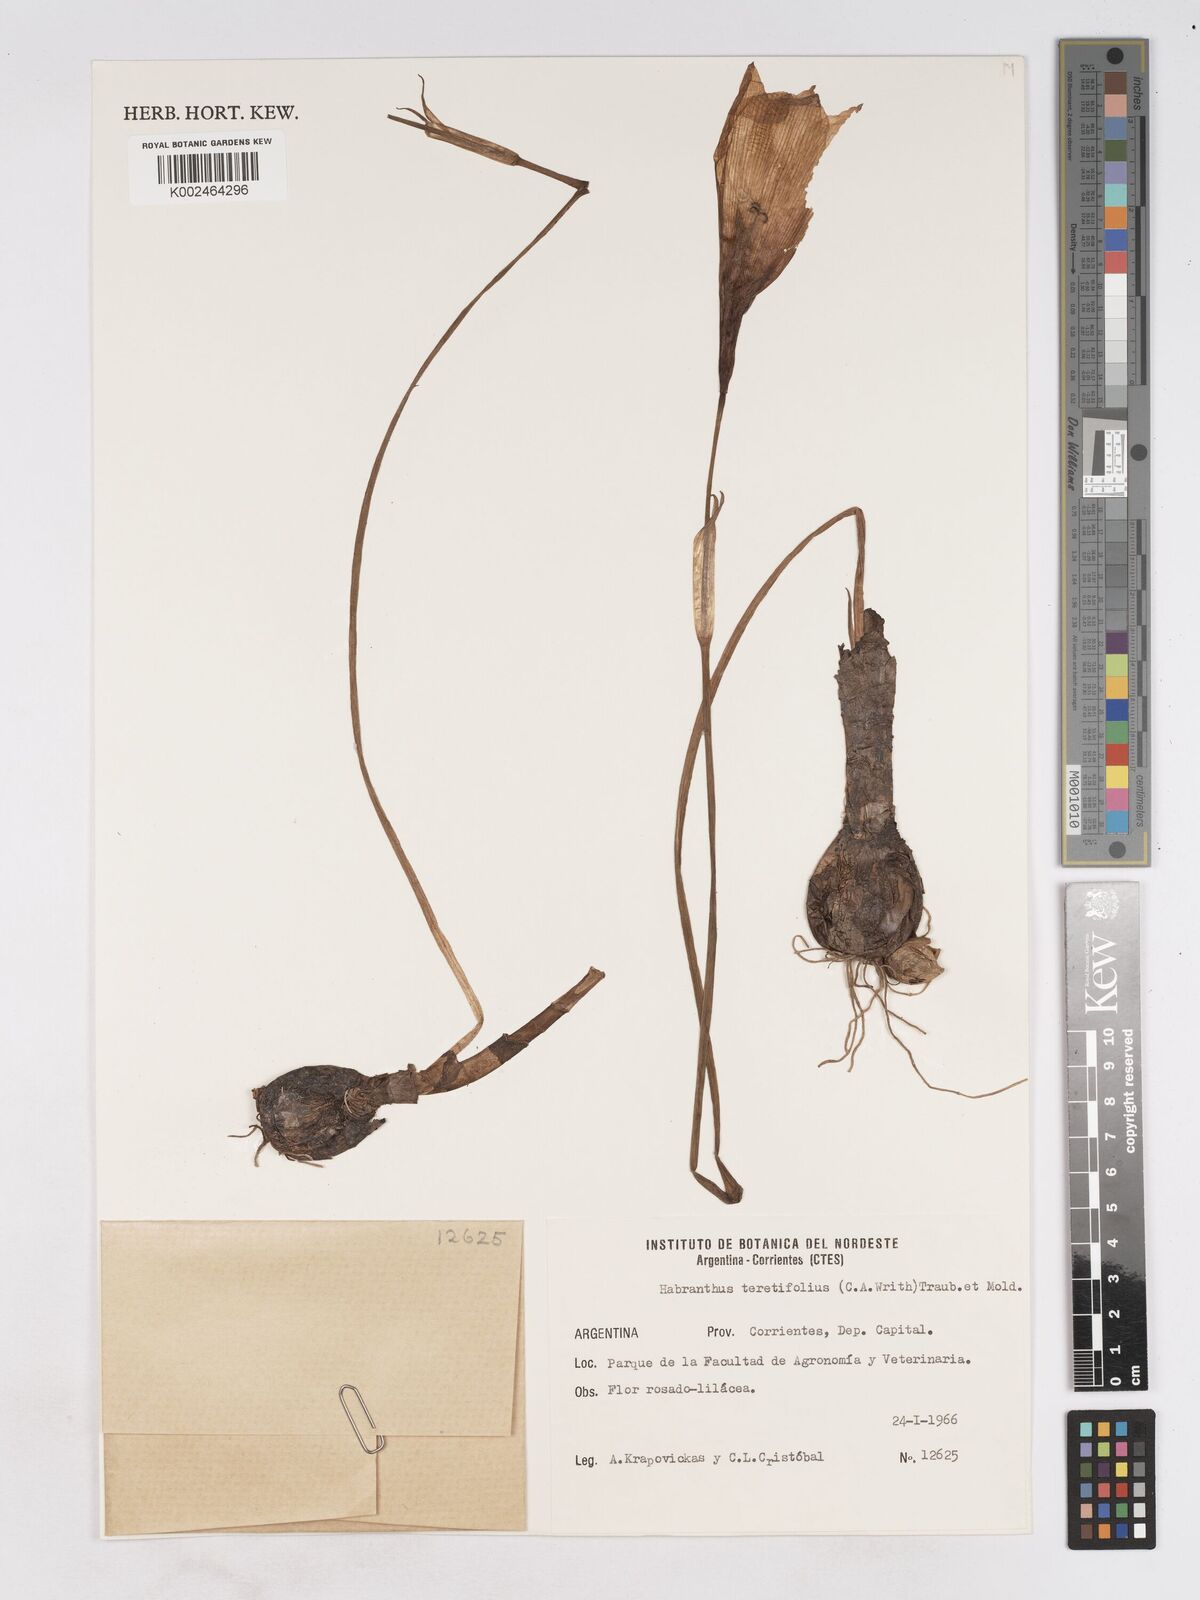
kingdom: Plantae
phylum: Tracheophyta
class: Liliopsida
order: Asparagales
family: Amaryllidaceae
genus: Zephyranthes
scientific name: Zephyranthes pedunculosa
